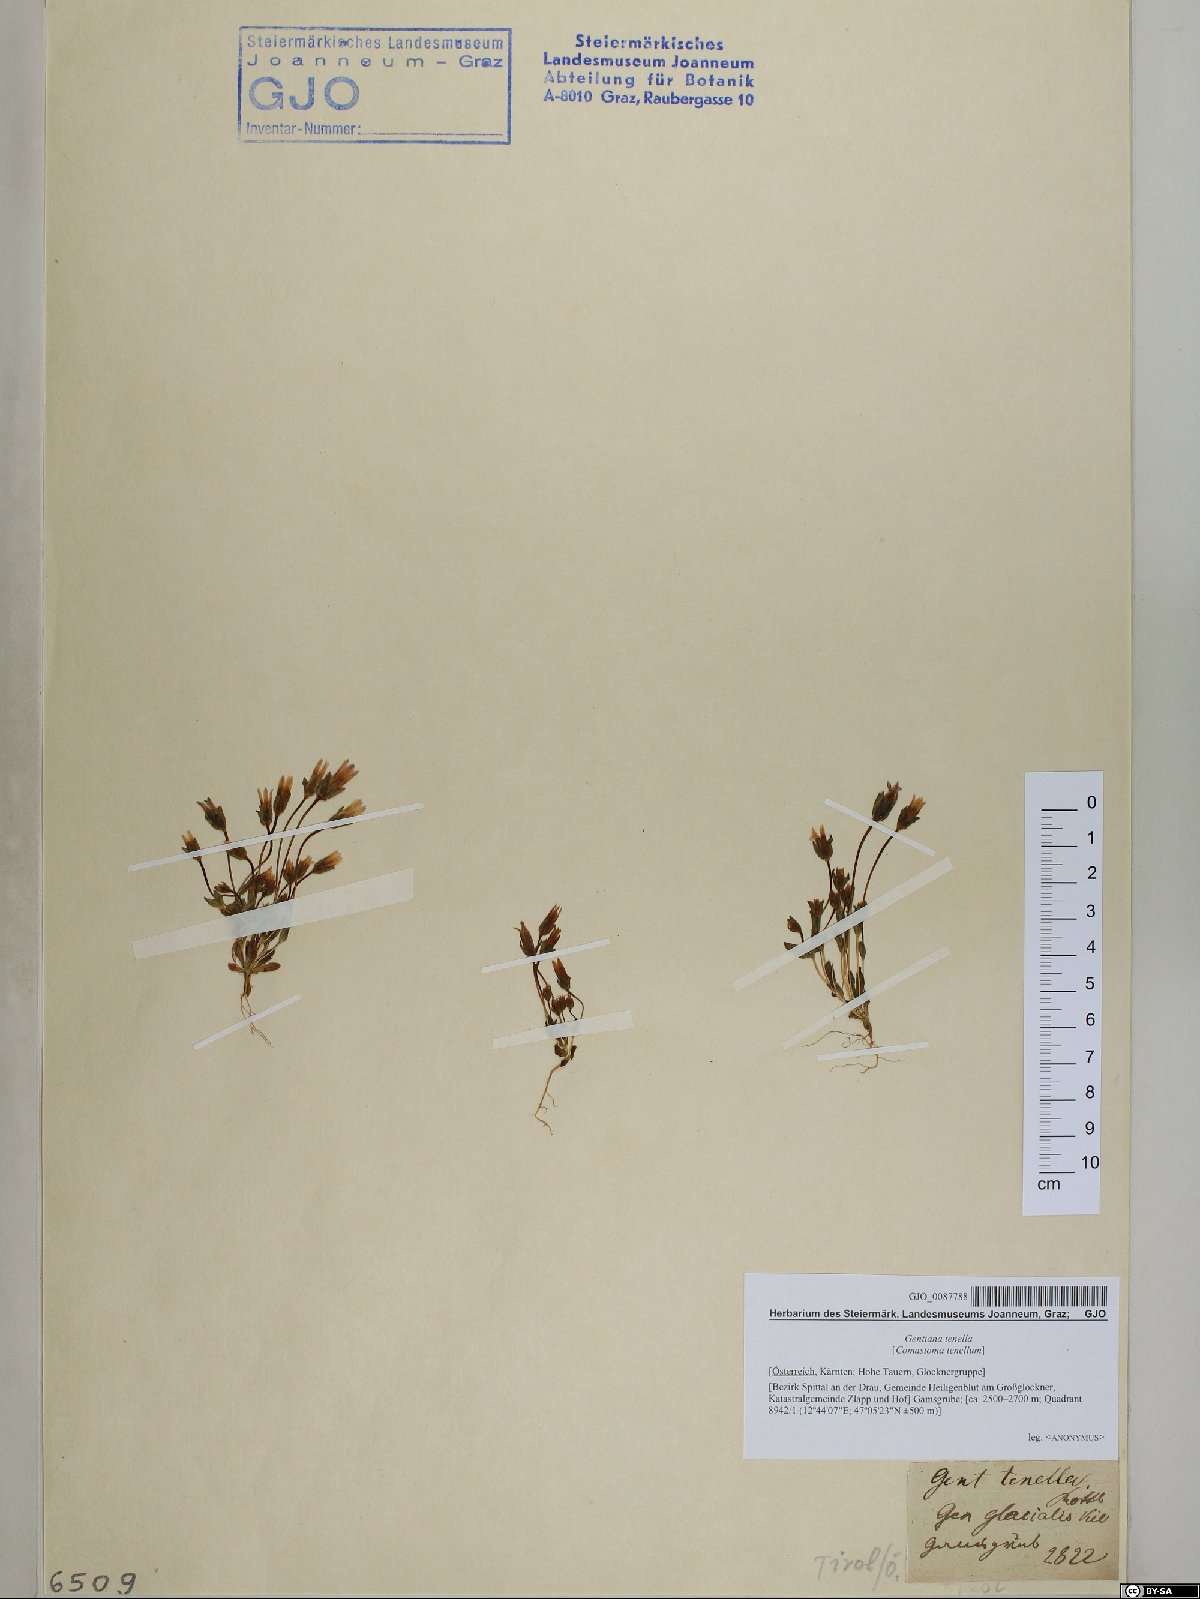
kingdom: Plantae
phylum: Tracheophyta
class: Magnoliopsida
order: Gentianales
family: Gentianaceae
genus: Comastoma
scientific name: Comastoma tenellum
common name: Dane's dwarf gentian
